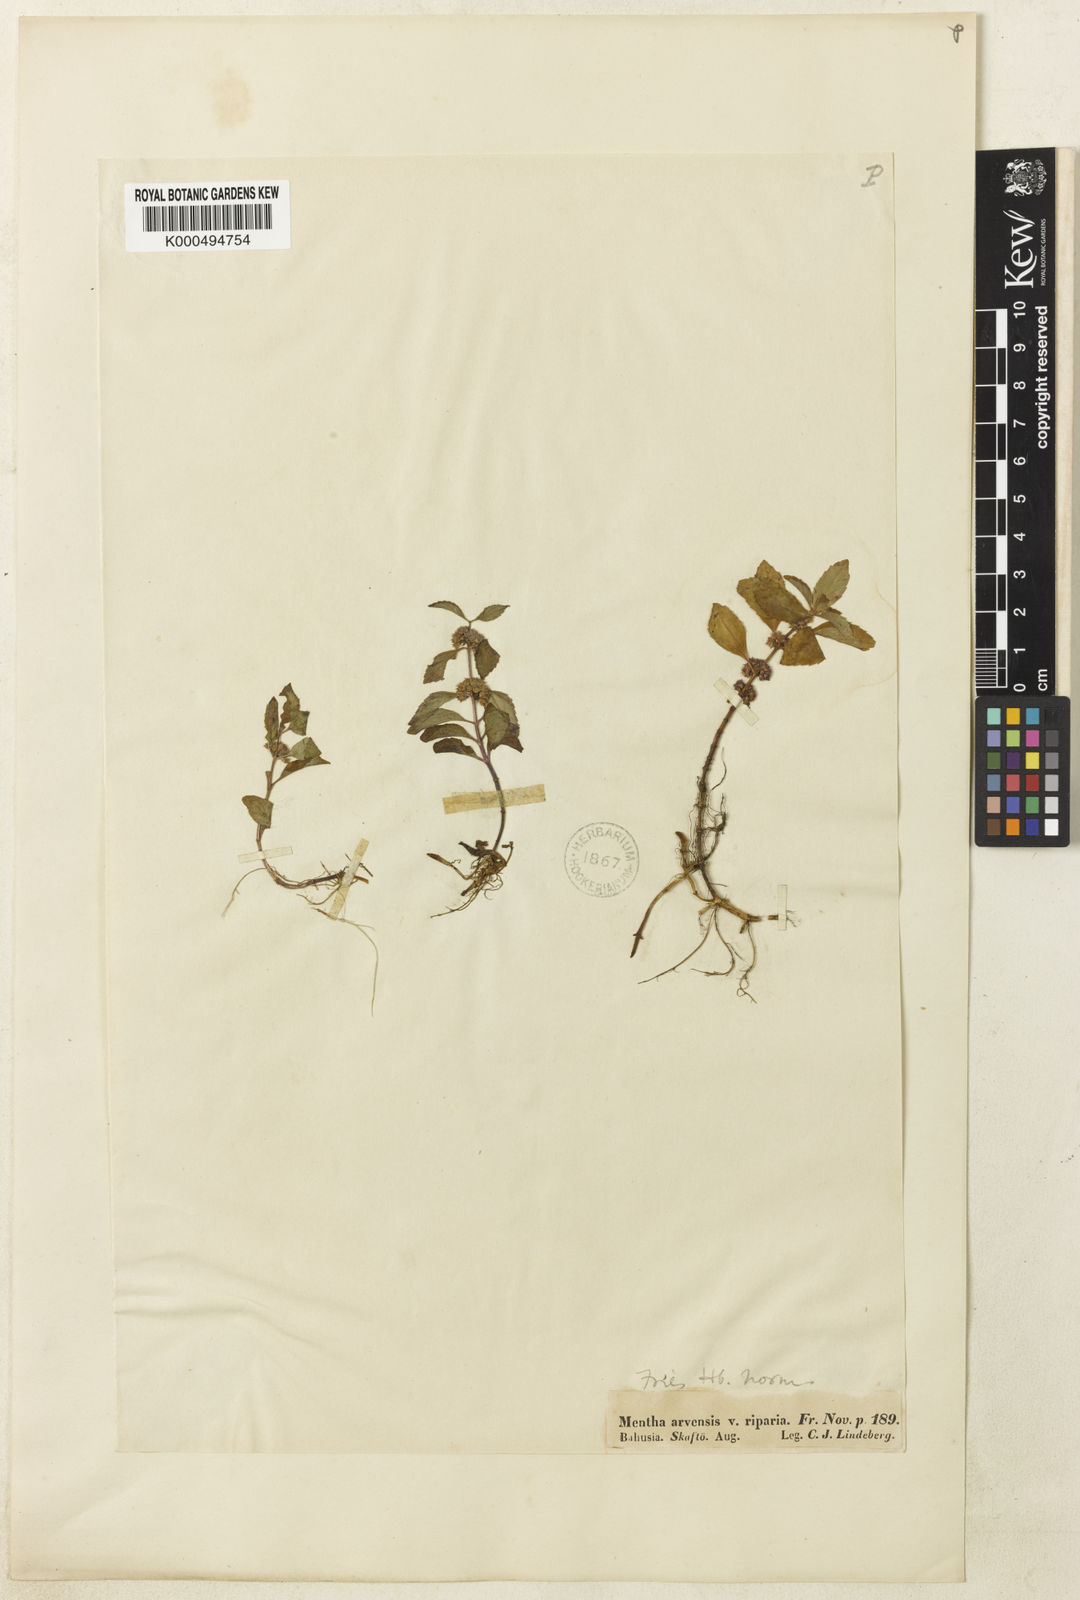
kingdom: Plantae
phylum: Tracheophyta
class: Magnoliopsida
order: Lamiales
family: Lamiaceae
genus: Mentha
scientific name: Mentha arvensis
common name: Corn mint
